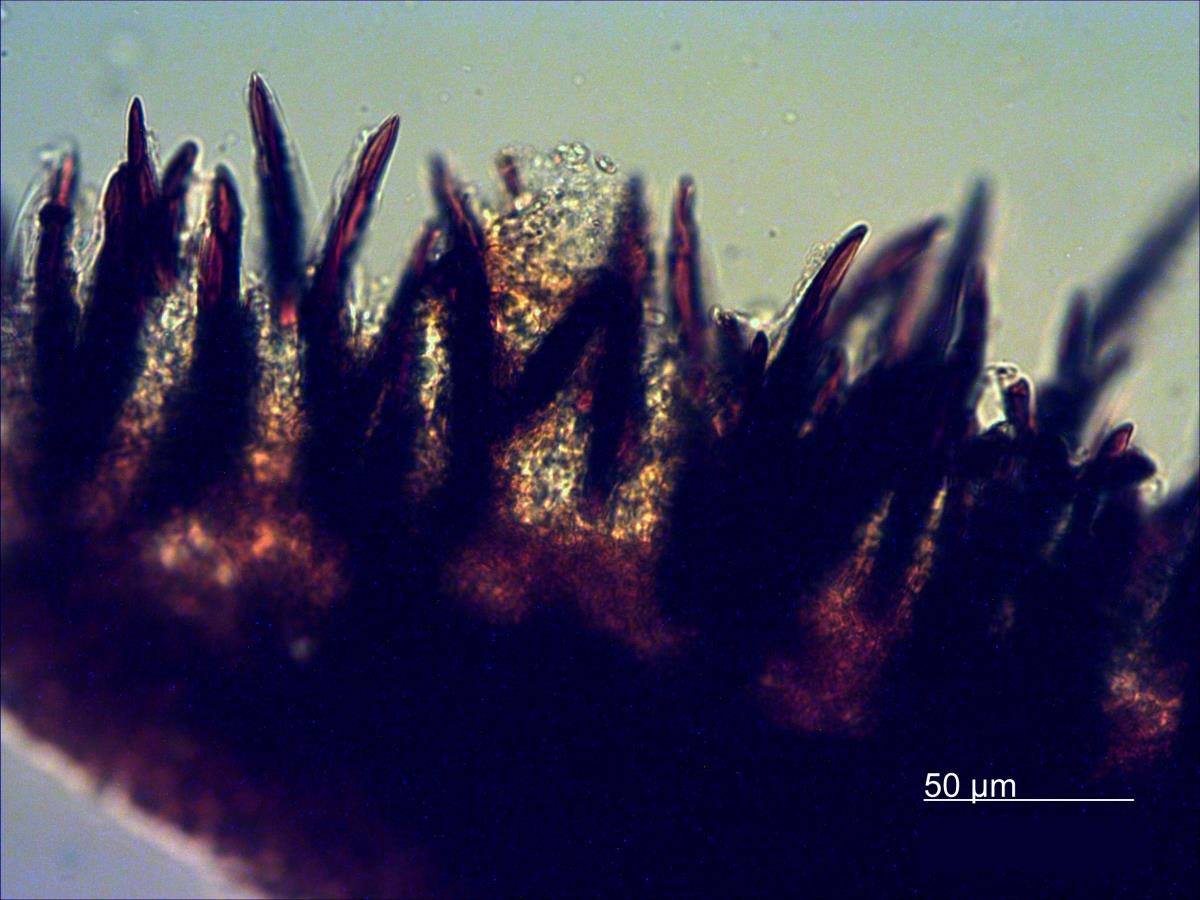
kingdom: Fungi
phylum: Basidiomycota
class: Agaricomycetes
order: Hymenochaetales
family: Hymenochaetaceae
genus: Hymenochaete
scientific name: Hymenochaete innexa
